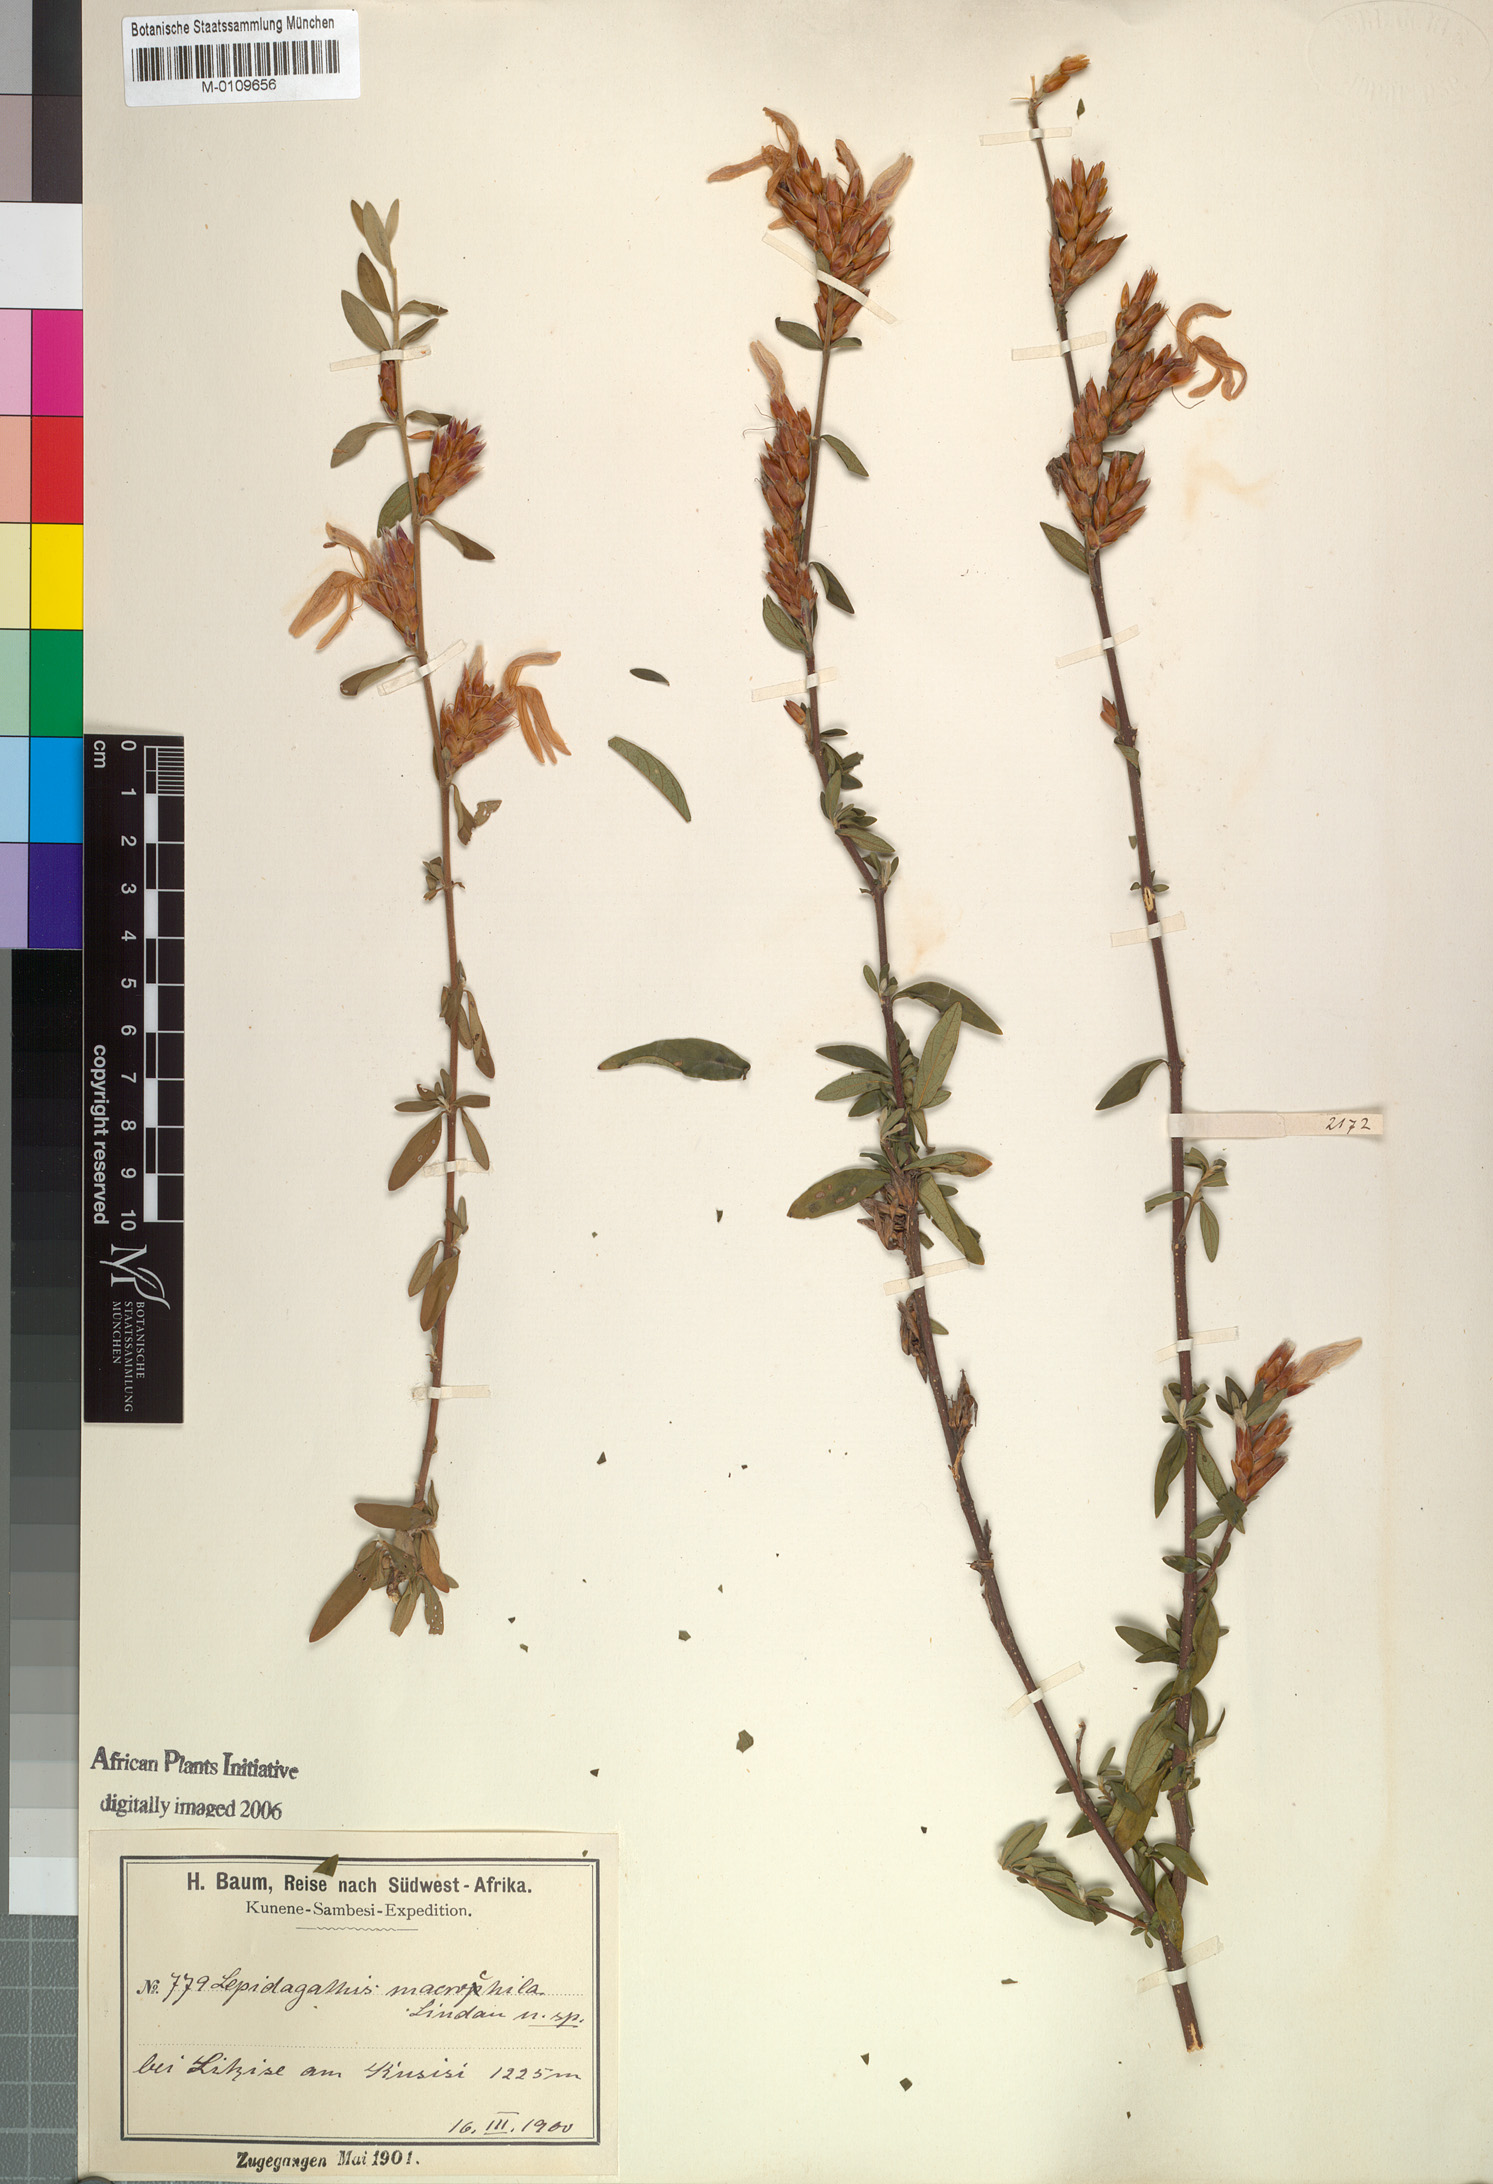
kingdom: Plantae
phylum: Tracheophyta
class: Magnoliopsida
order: Lamiales
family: Acanthaceae
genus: Lepidagathis
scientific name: Lepidagathis macrochila
